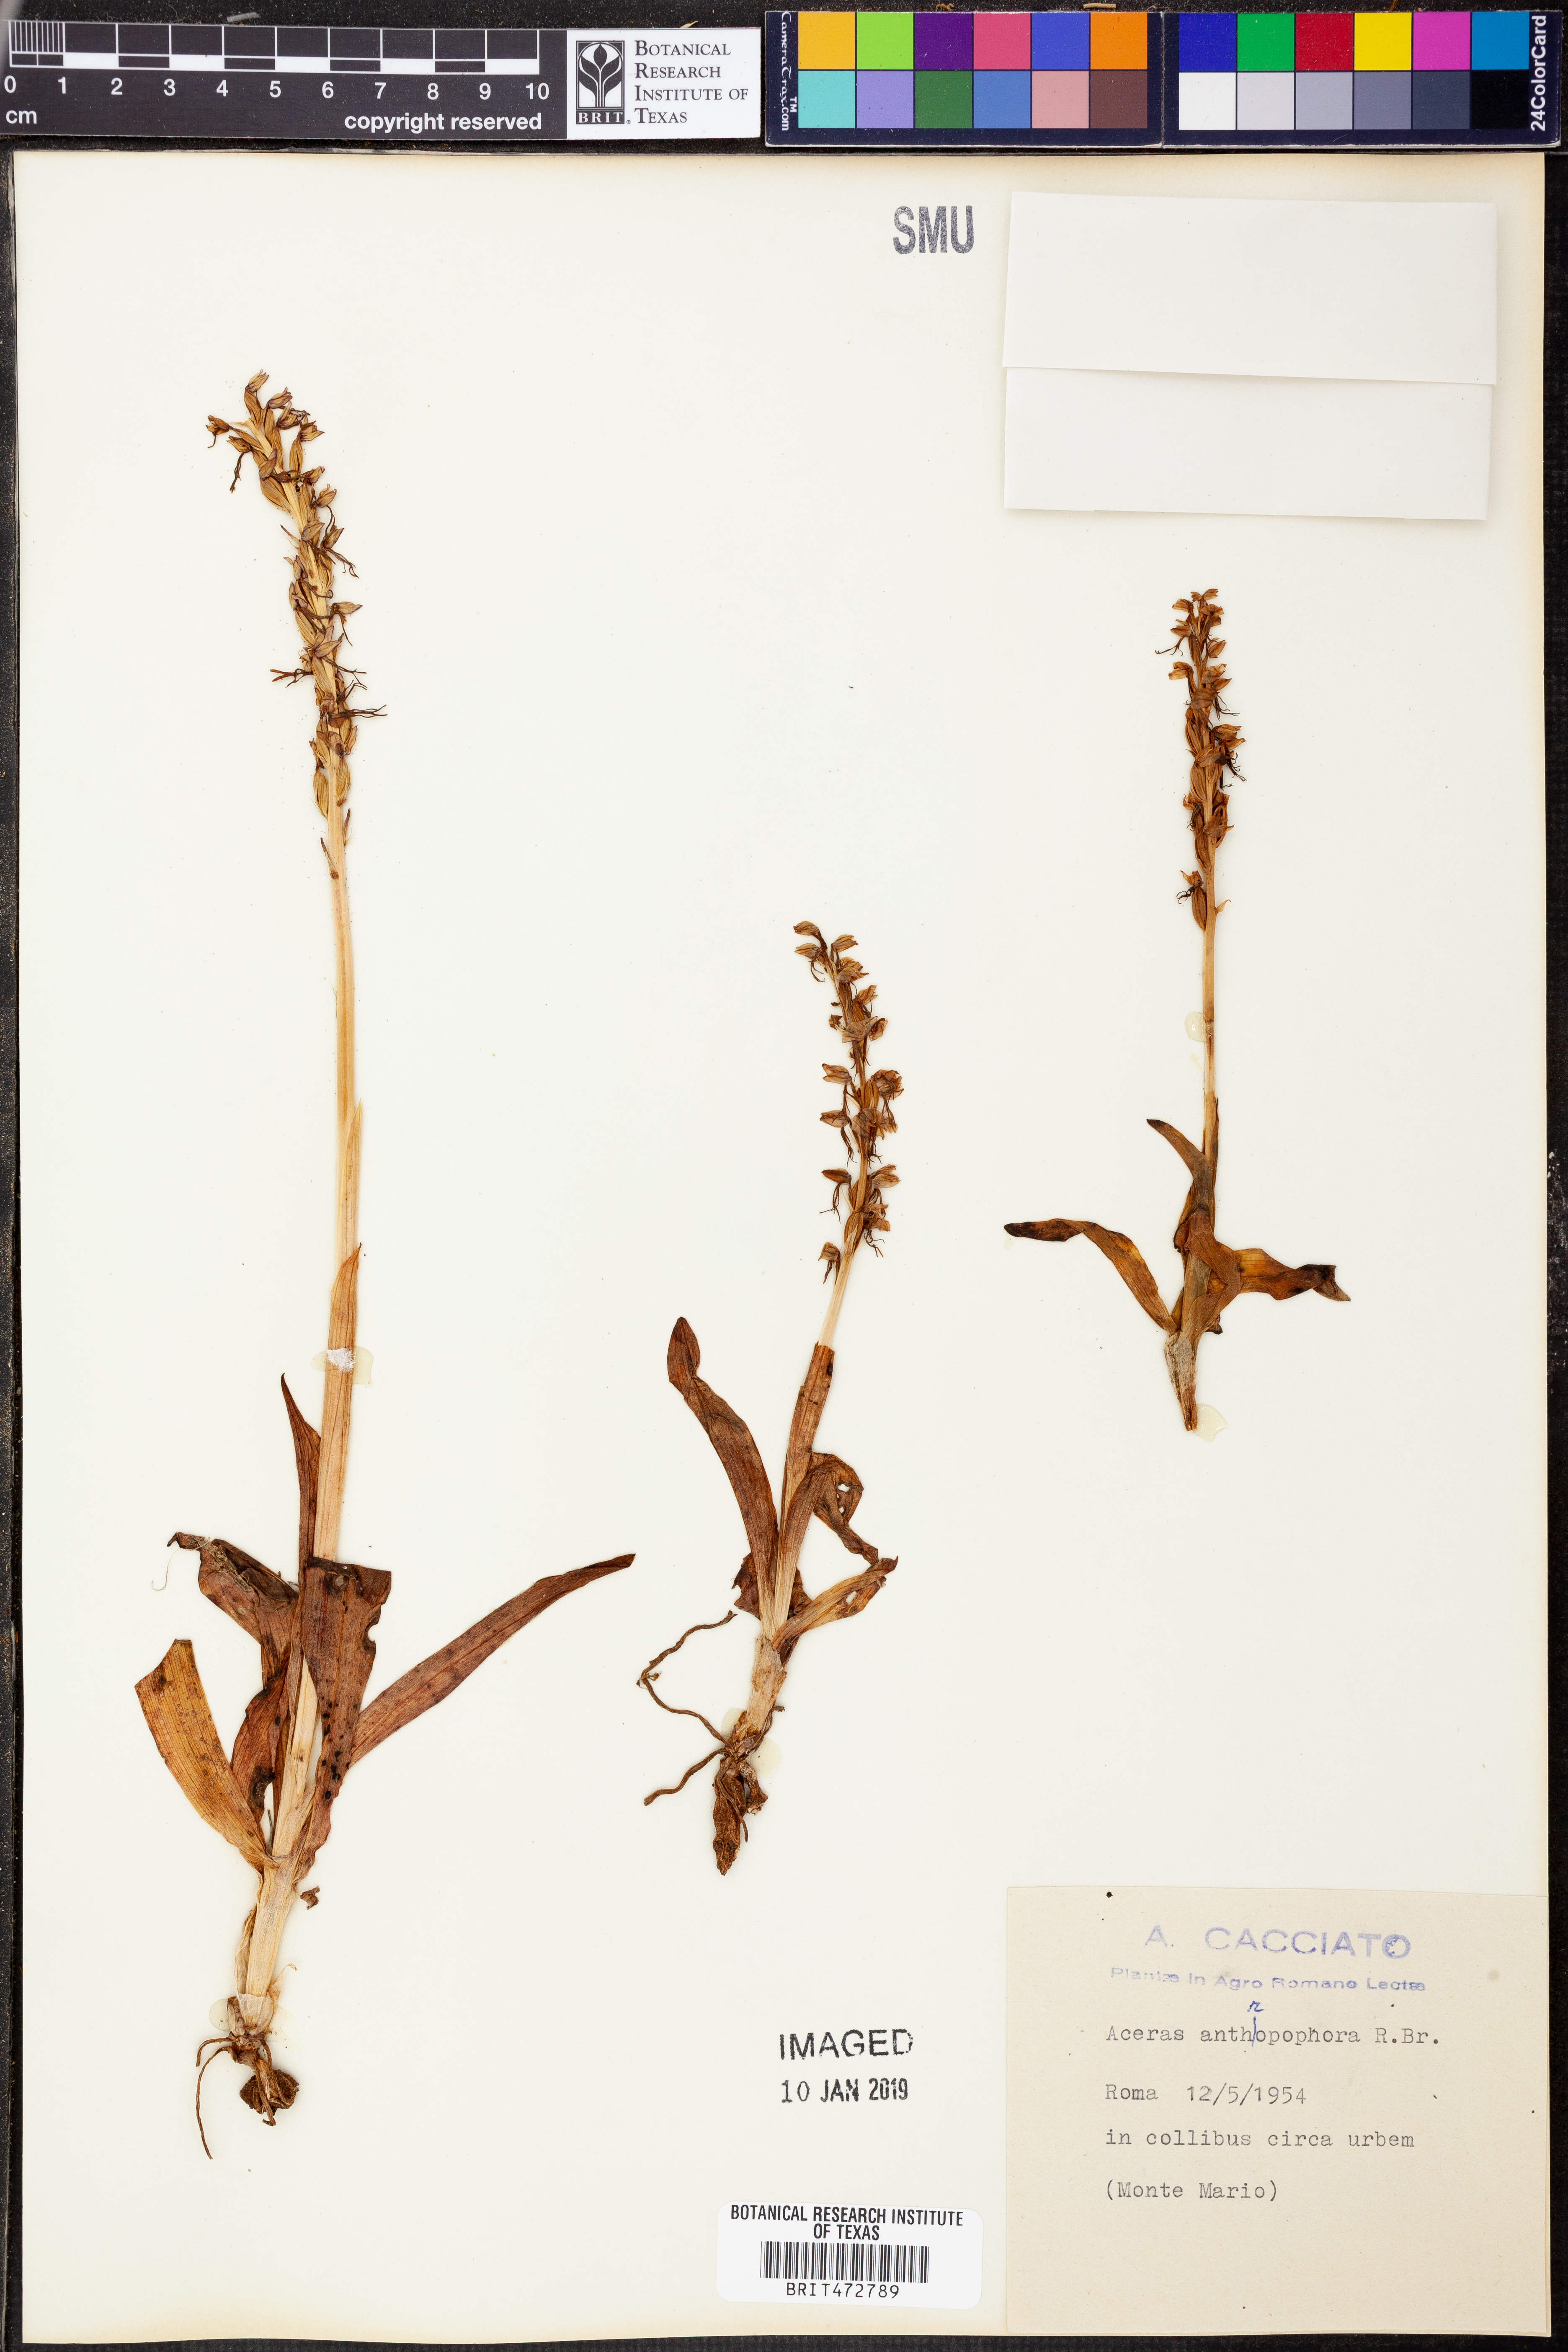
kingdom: Plantae
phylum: Tracheophyta
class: Liliopsida
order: Asparagales
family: Orchidaceae
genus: Orchis
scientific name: Orchis anthropophora
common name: Man orchid
